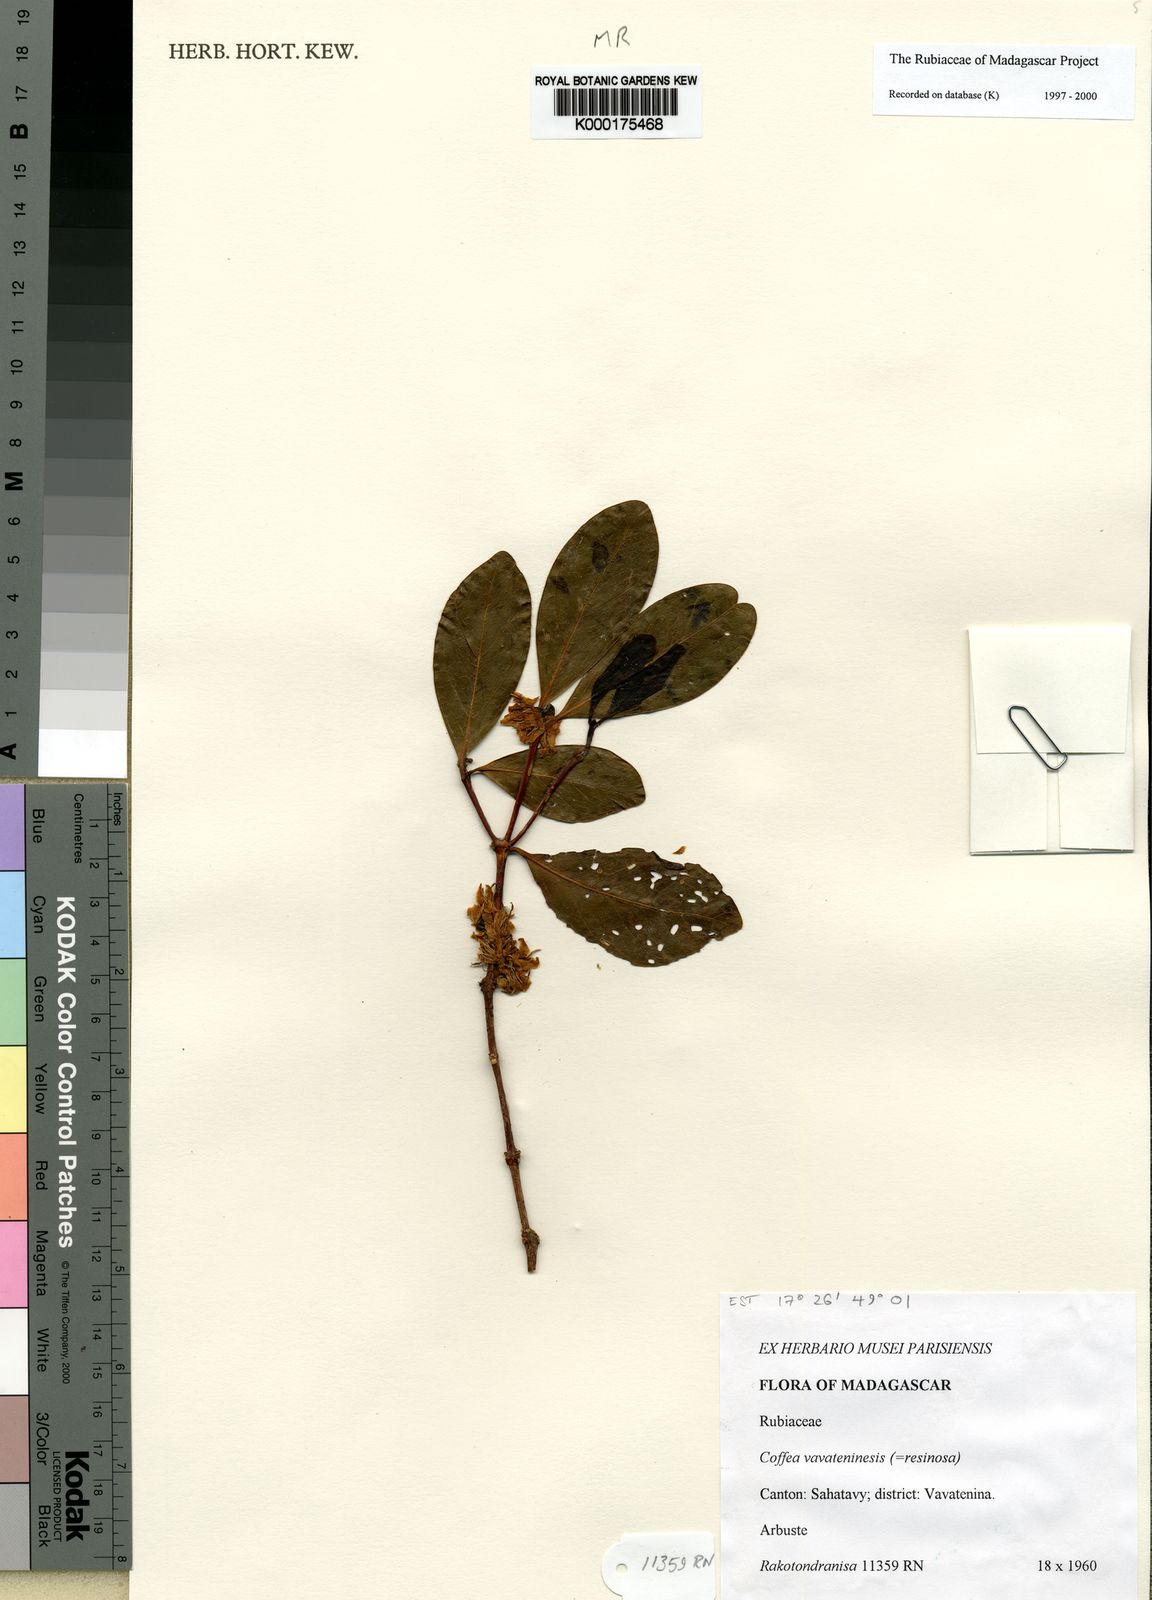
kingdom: Plantae
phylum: Tracheophyta
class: Magnoliopsida
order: Gentianales
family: Rubiaceae
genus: Coffea
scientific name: Coffea vavateninensis
